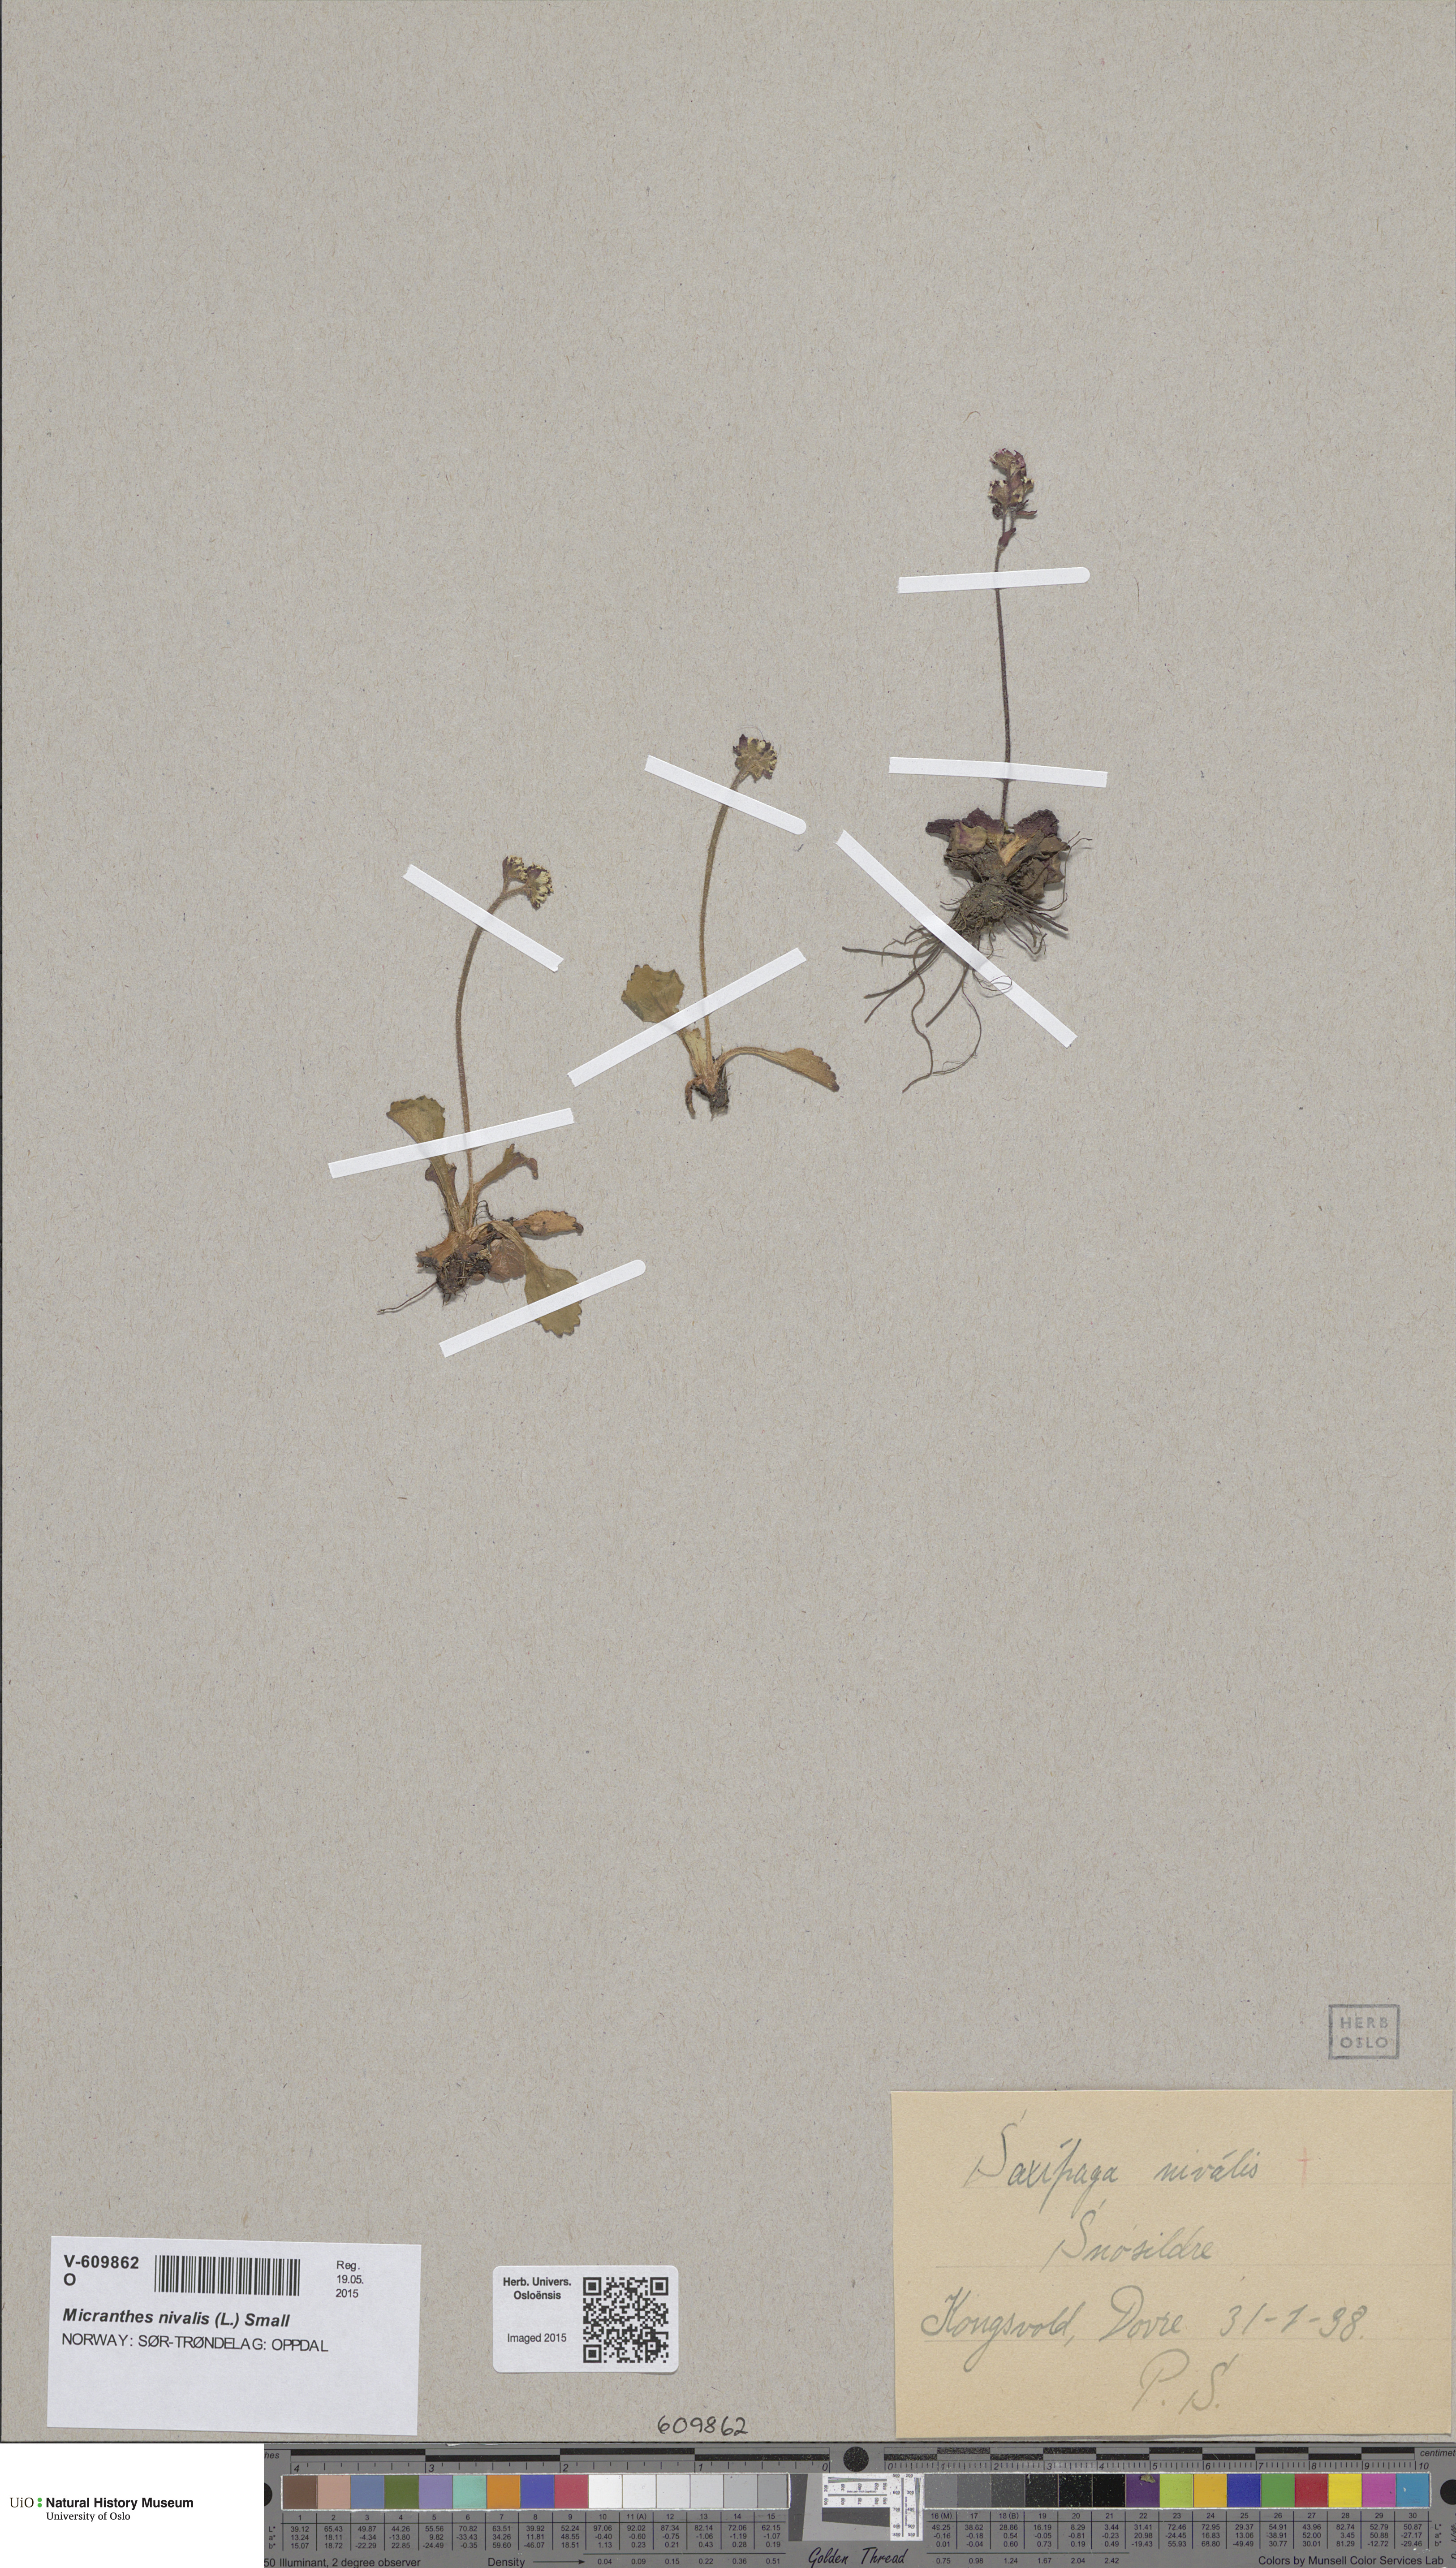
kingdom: Plantae
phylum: Tracheophyta
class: Magnoliopsida
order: Saxifragales
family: Saxifragaceae
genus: Micranthes
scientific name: Micranthes nivalis
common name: Alpine saxifrage
